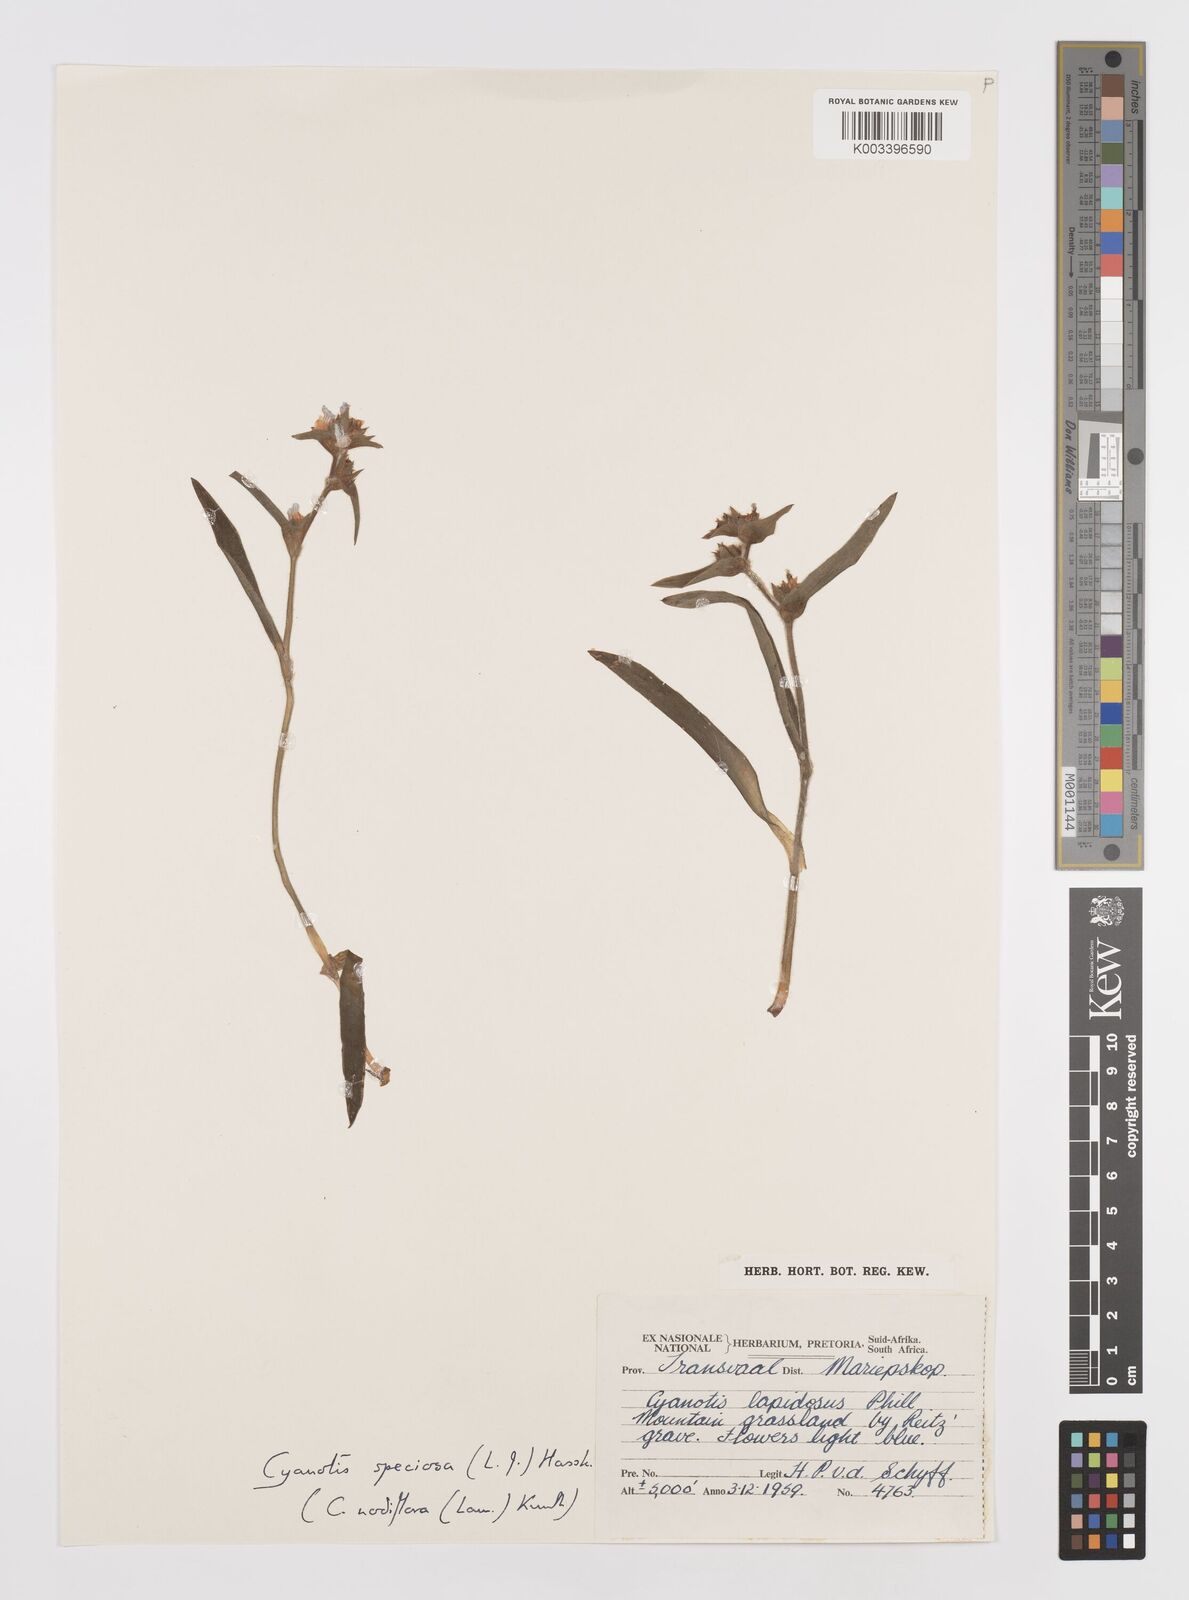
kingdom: Plantae
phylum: Tracheophyta
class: Liliopsida
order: Commelinales
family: Commelinaceae
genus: Cyanotis
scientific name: Cyanotis speciosa
